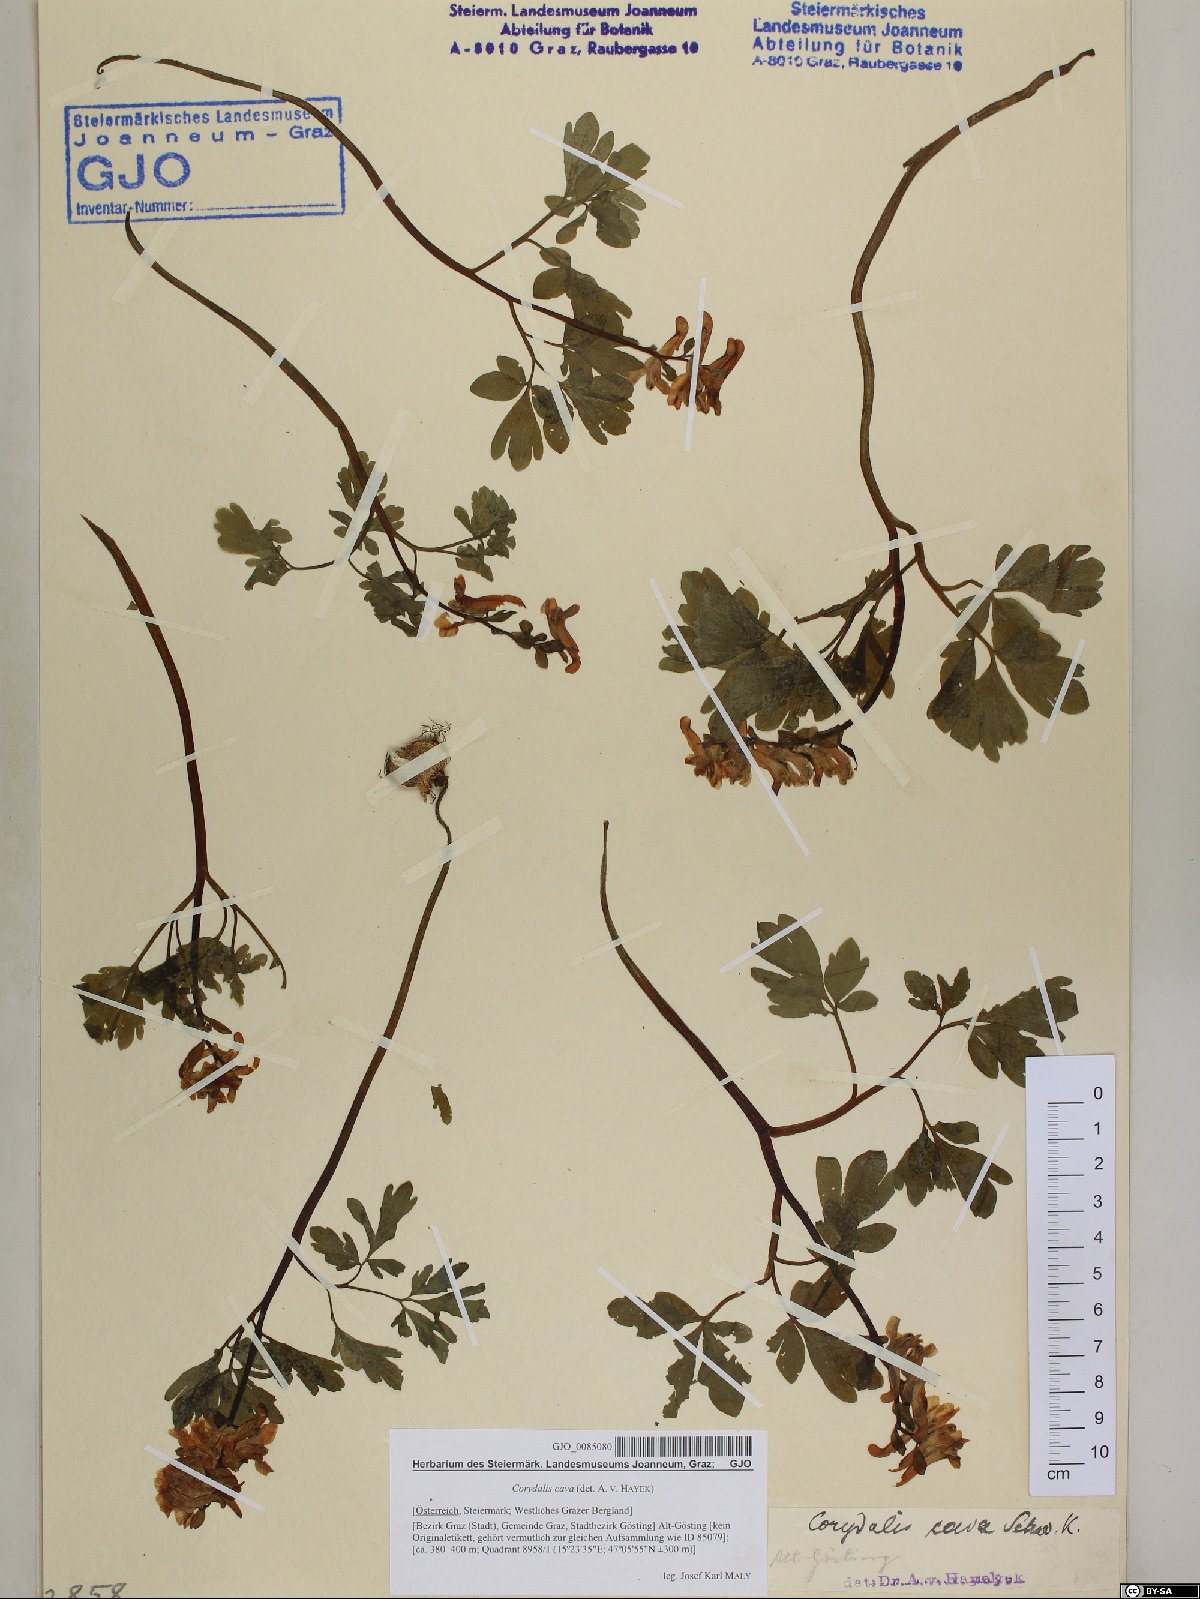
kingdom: Plantae
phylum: Tracheophyta
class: Magnoliopsida
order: Ranunculales
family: Papaveraceae
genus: Corydalis
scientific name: Corydalis cava
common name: Hollowroot
